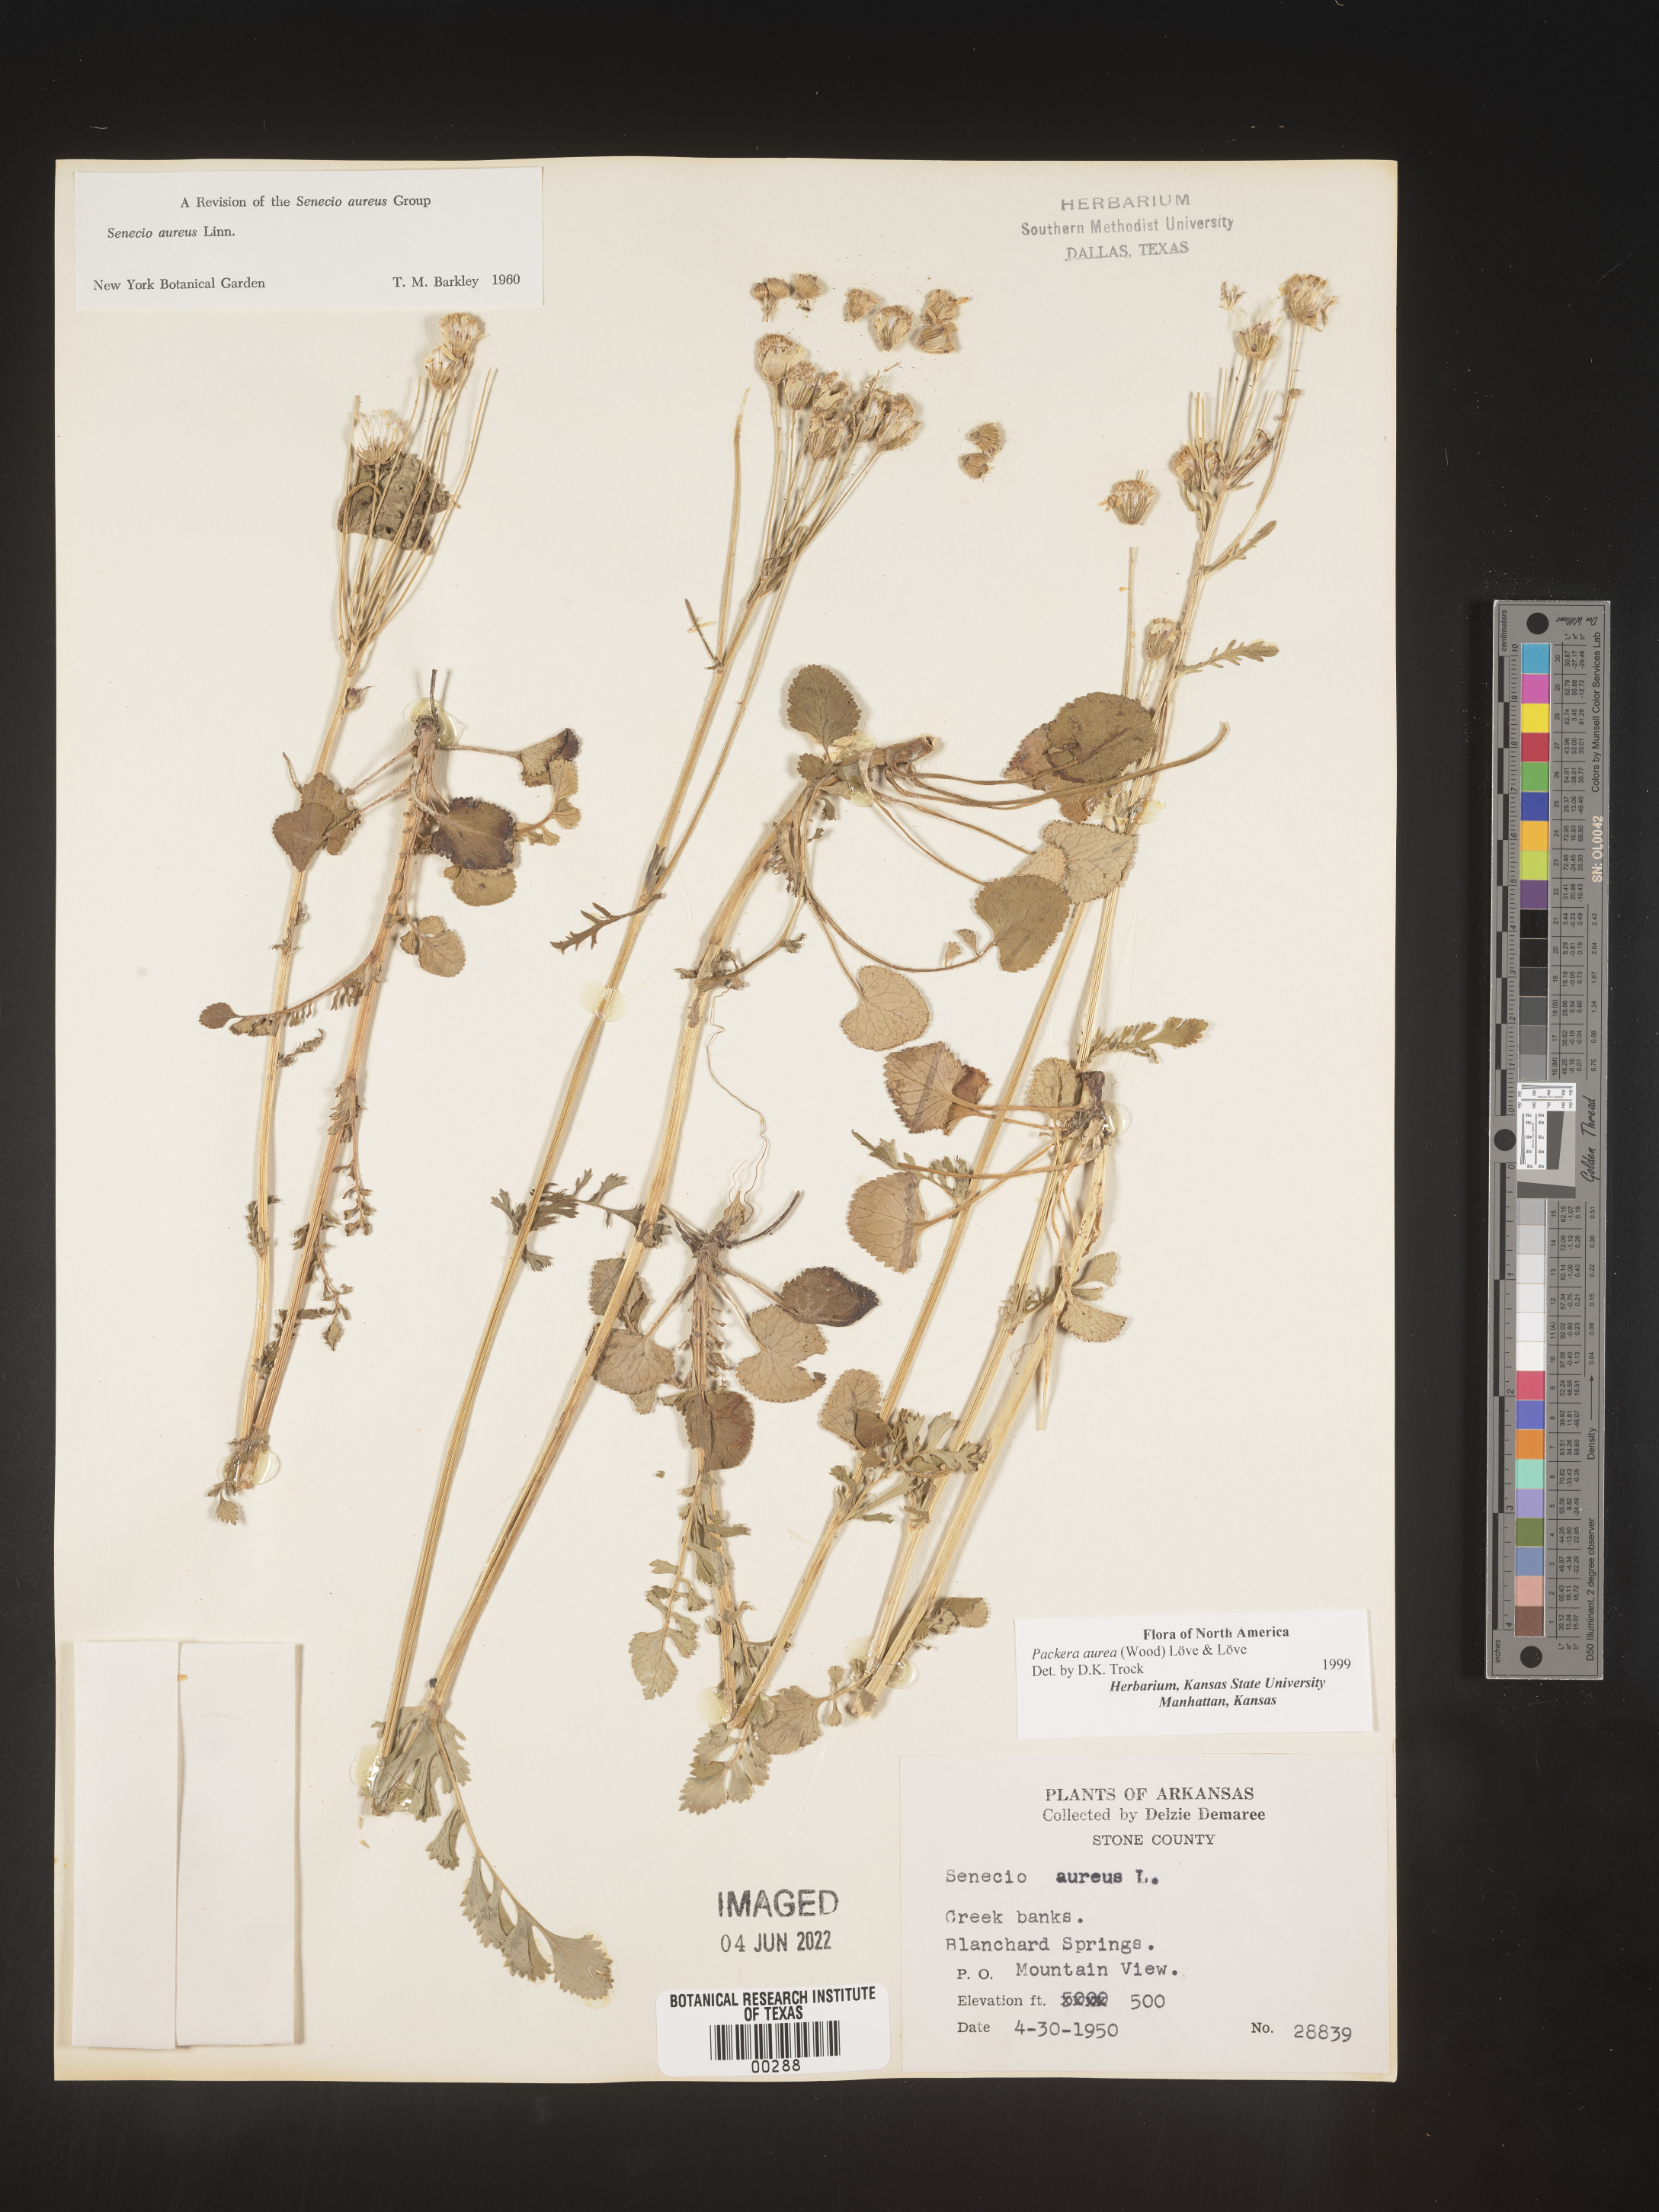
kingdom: Plantae
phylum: Tracheophyta
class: Magnoliopsida
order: Asterales
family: Asteraceae
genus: Packera
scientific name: Packera aurea
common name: Golden groundsel
